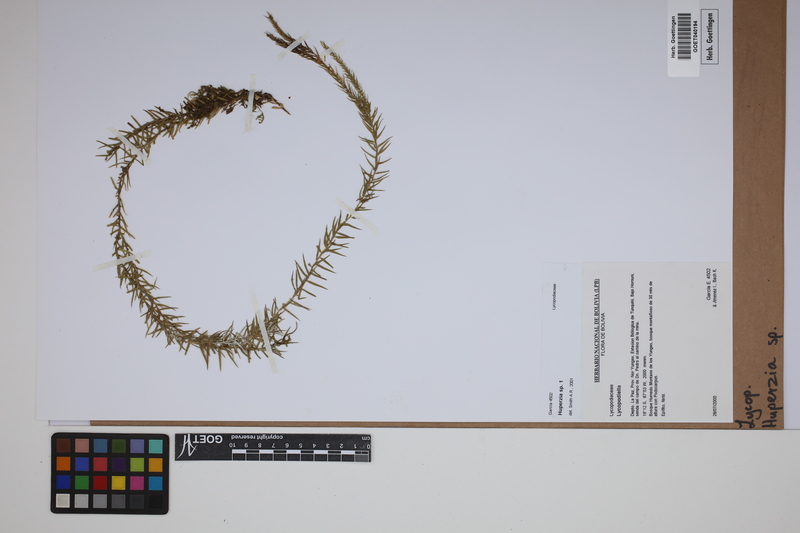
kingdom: Plantae
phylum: Tracheophyta
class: Lycopodiopsida
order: Lycopodiales
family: Lycopodiaceae
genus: Phlegmariurus
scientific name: Phlegmariurus
